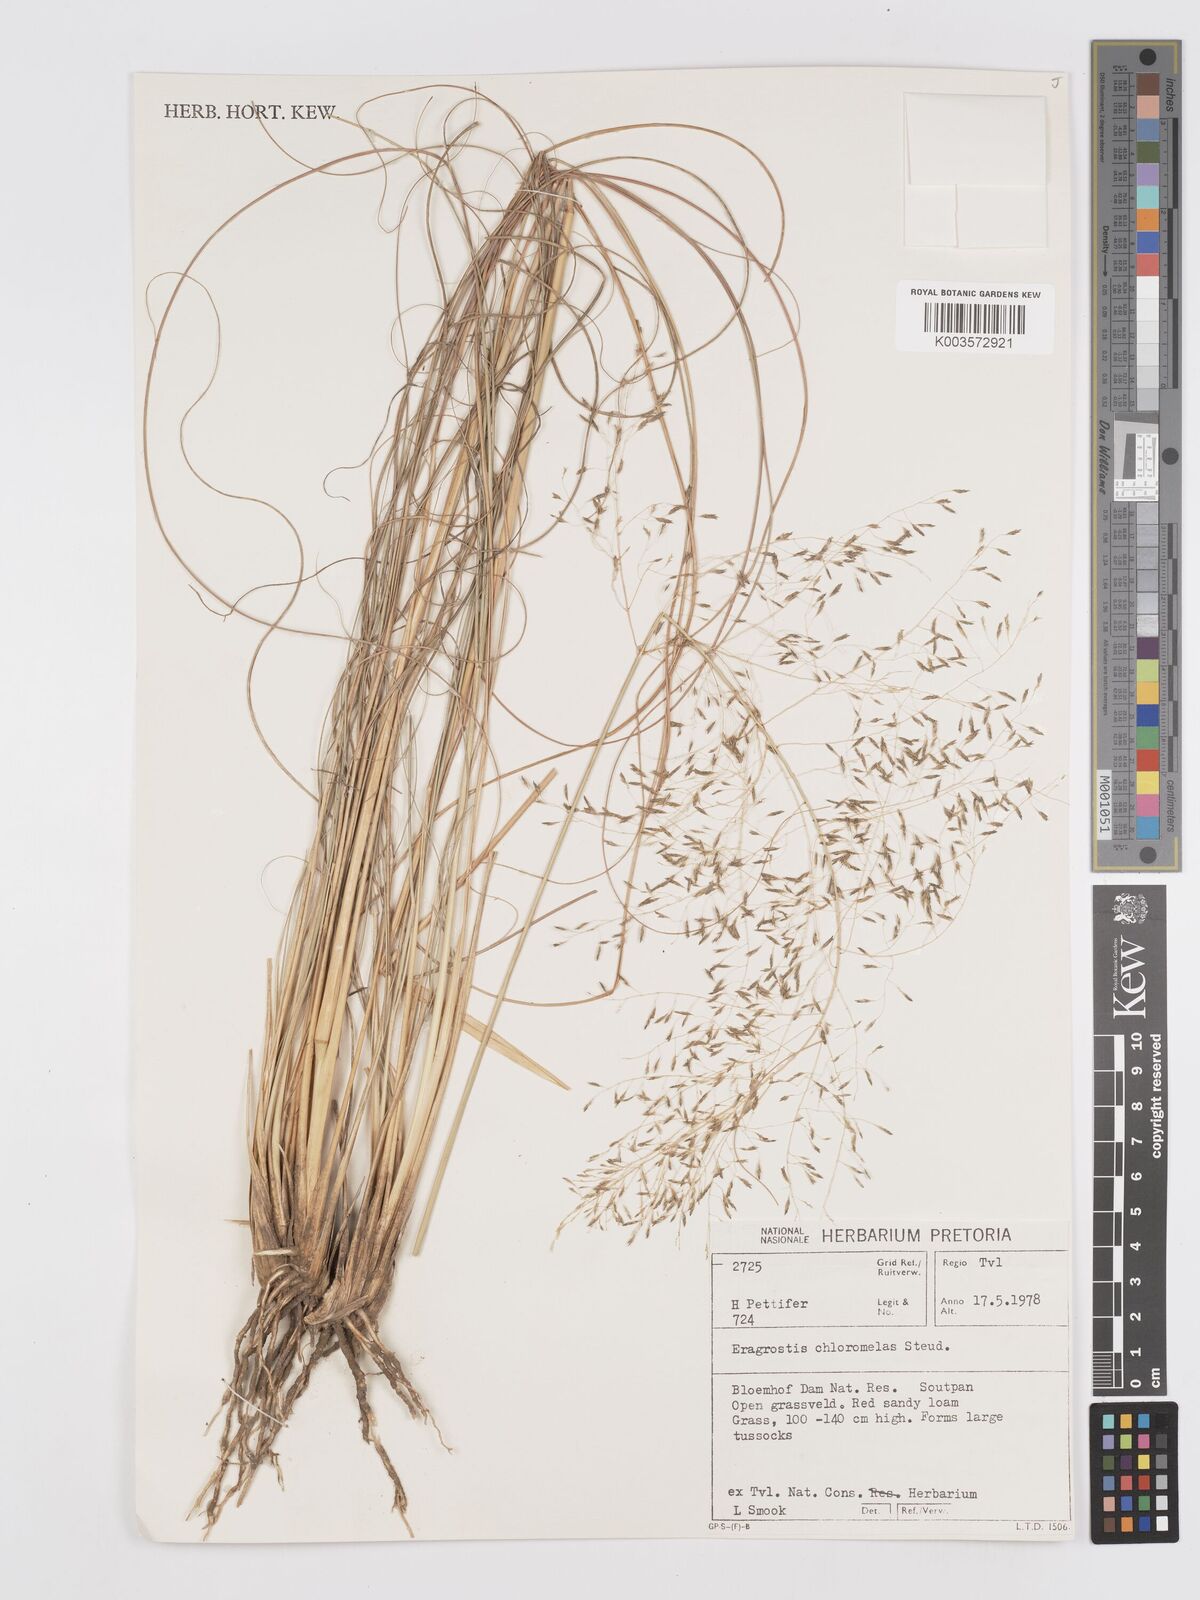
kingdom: Plantae
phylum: Tracheophyta
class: Liliopsida
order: Poales
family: Poaceae
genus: Eragrostis
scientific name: Eragrostis curvula
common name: African love-grass
